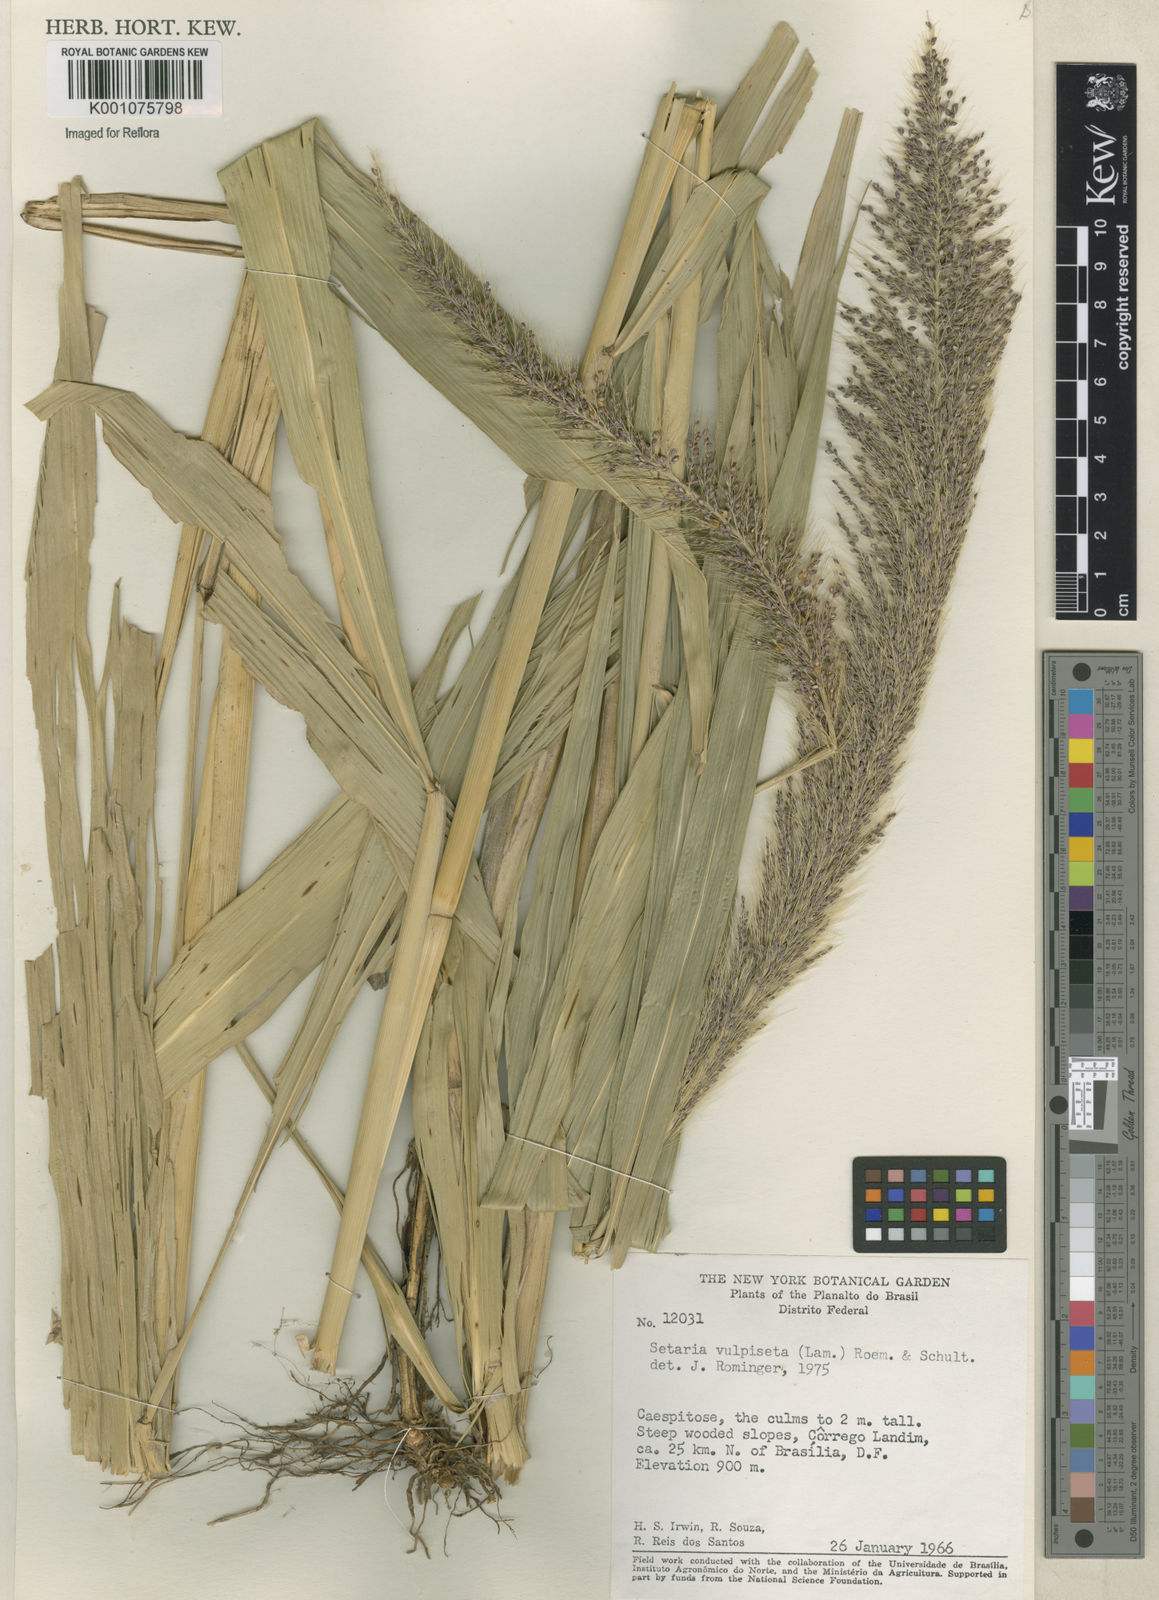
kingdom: Plantae
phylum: Tracheophyta
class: Liliopsida
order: Poales
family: Poaceae
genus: Setaria
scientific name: Setaria vulpiseta
